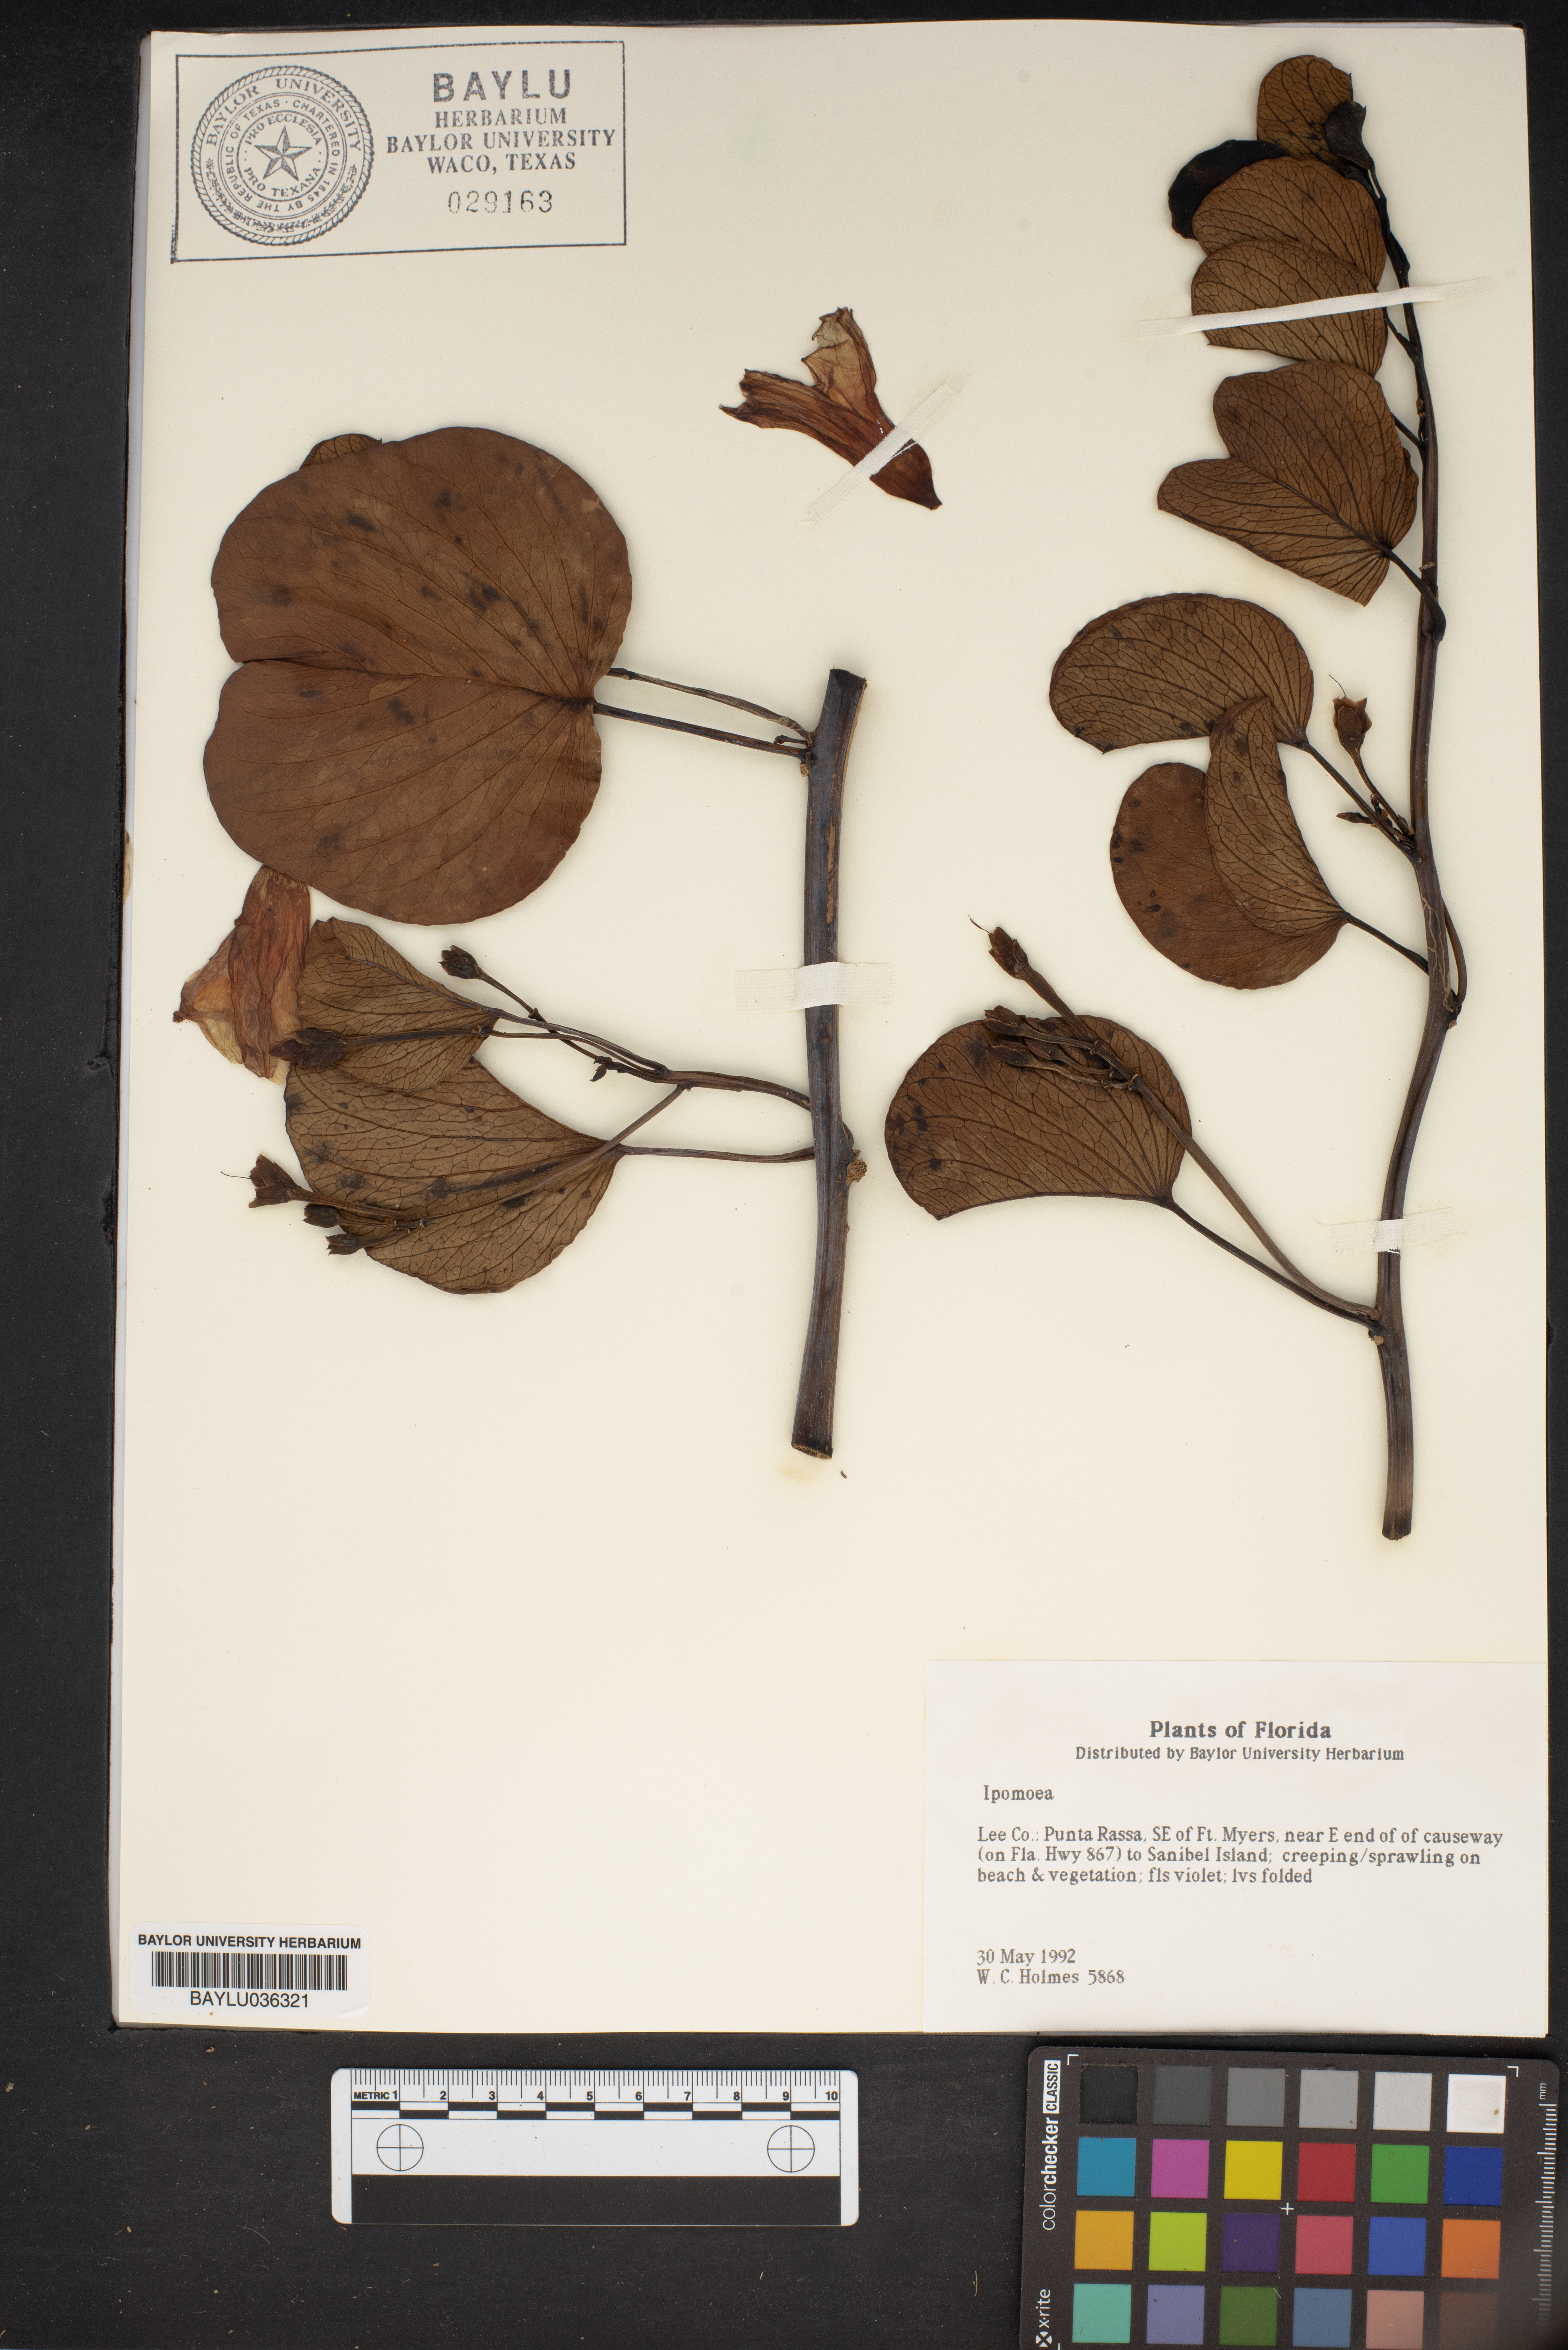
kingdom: Plantae
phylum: Tracheophyta
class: Magnoliopsida
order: Solanales
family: Convolvulaceae
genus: Ipomoea
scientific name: Ipomoea
